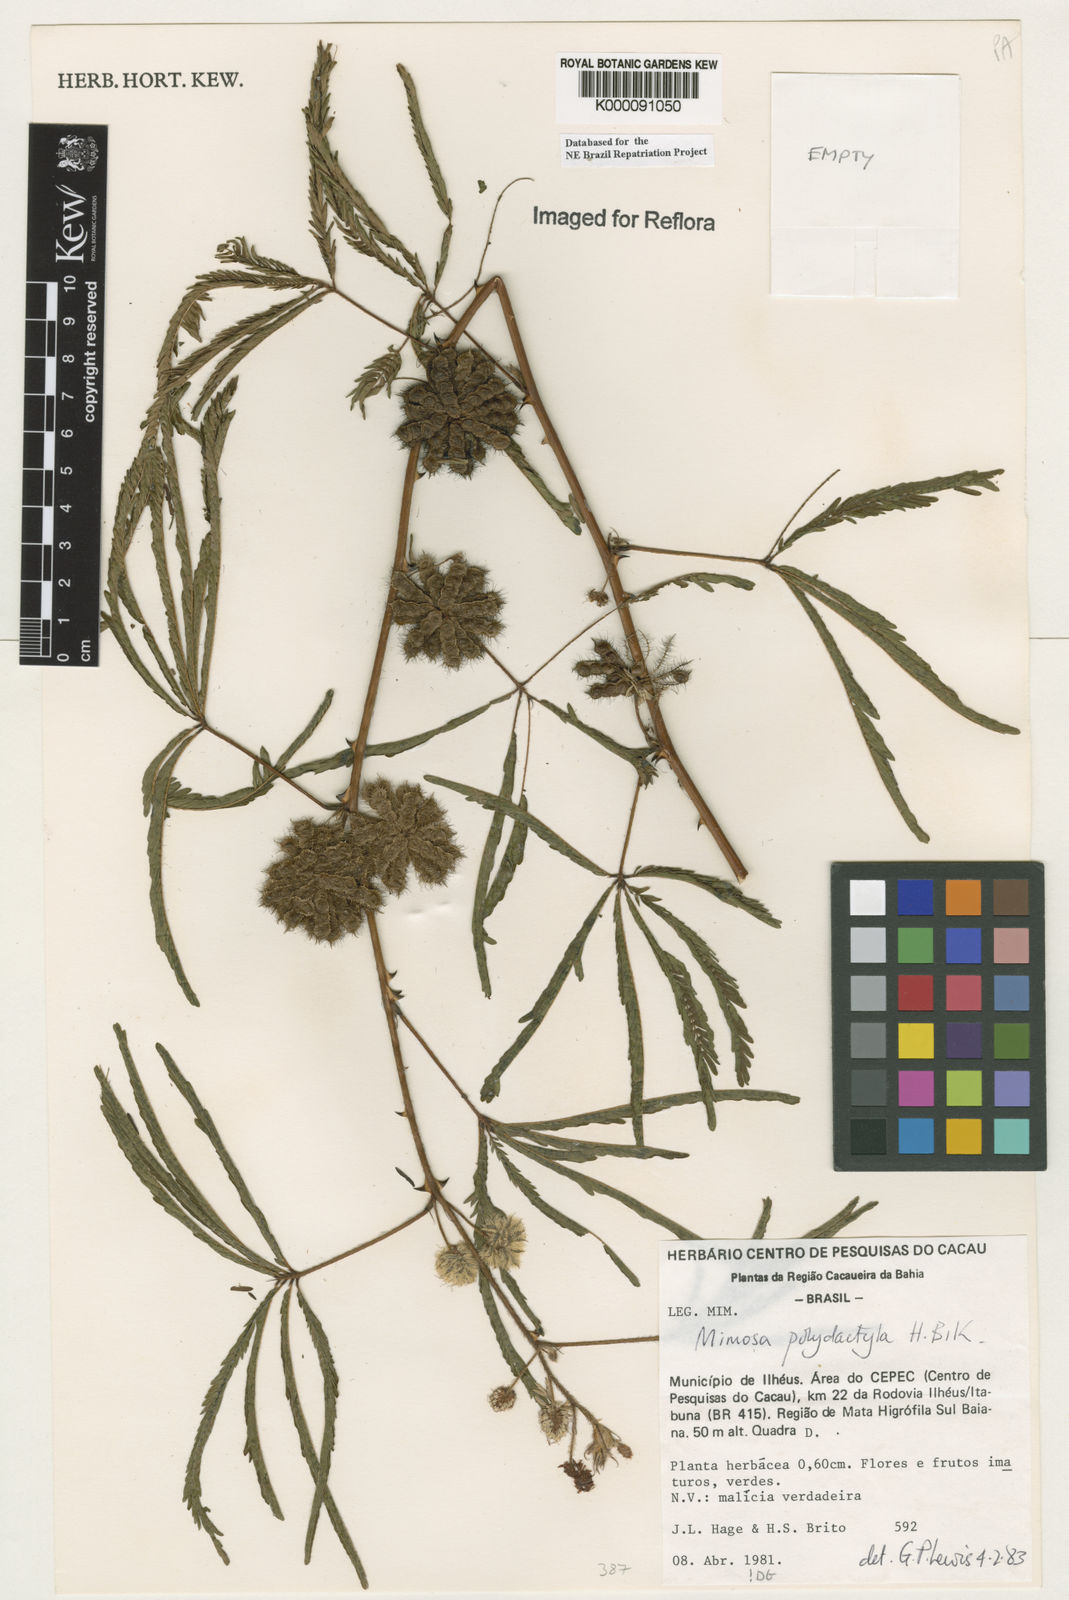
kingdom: Plantae
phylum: Tracheophyta
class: Magnoliopsida
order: Fabales
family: Fabaceae
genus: Mimosa
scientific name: Mimosa
